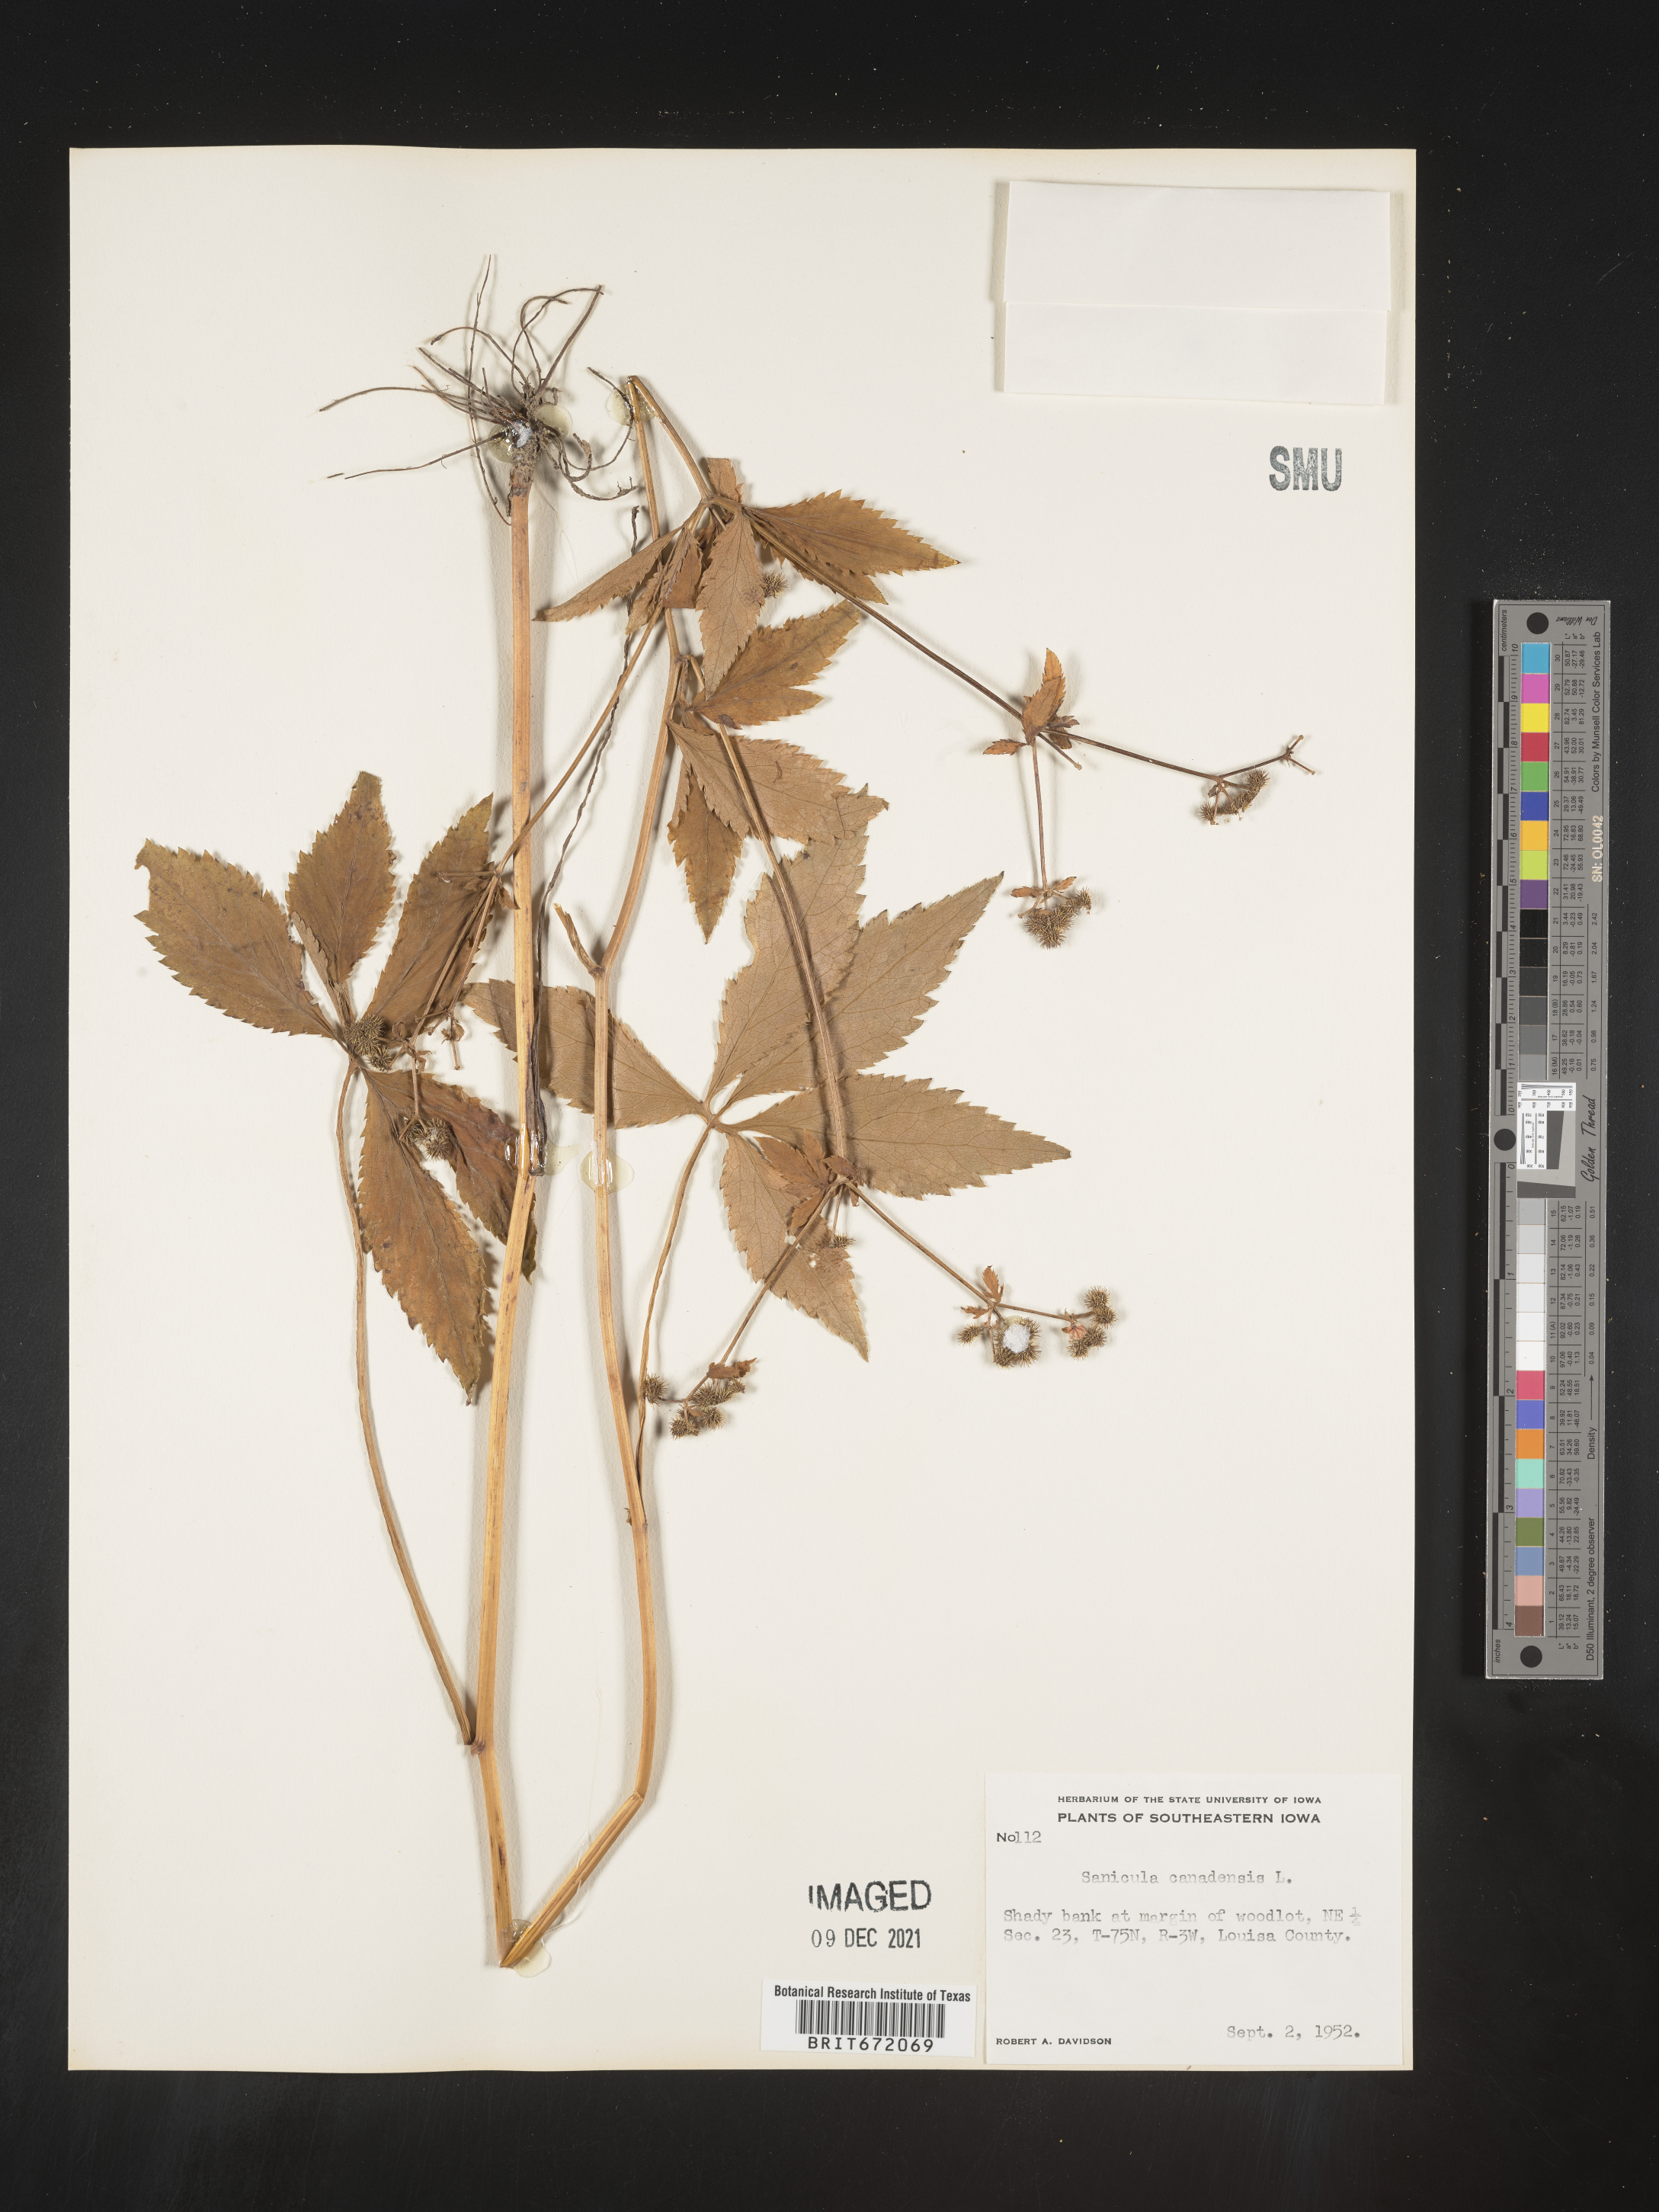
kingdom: Plantae
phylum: Tracheophyta
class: Magnoliopsida
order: Apiales
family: Apiaceae
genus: Sanicula
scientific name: Sanicula canadensis
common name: Canada sanicle
